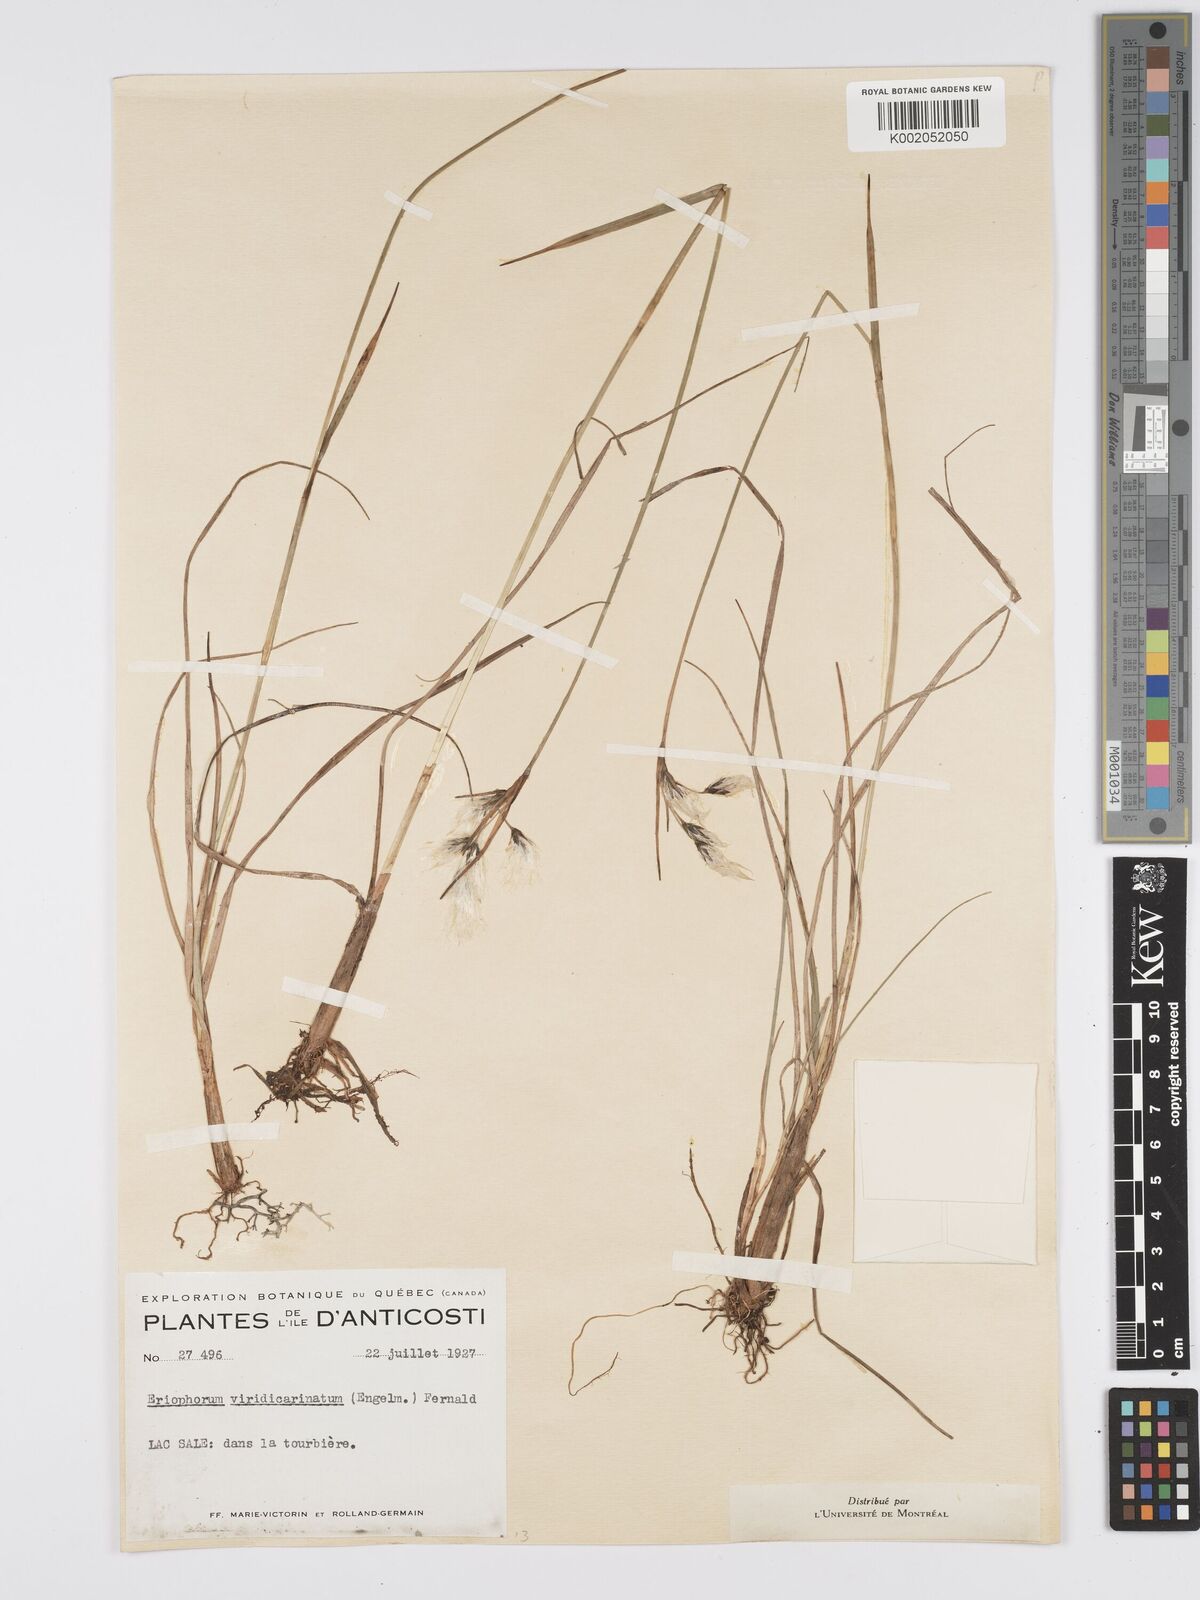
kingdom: Plantae
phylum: Tracheophyta
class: Liliopsida
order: Poales
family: Cyperaceae
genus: Eriophorum
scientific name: Eriophorum viridicarinatum
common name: Green-keeled cottongrass
